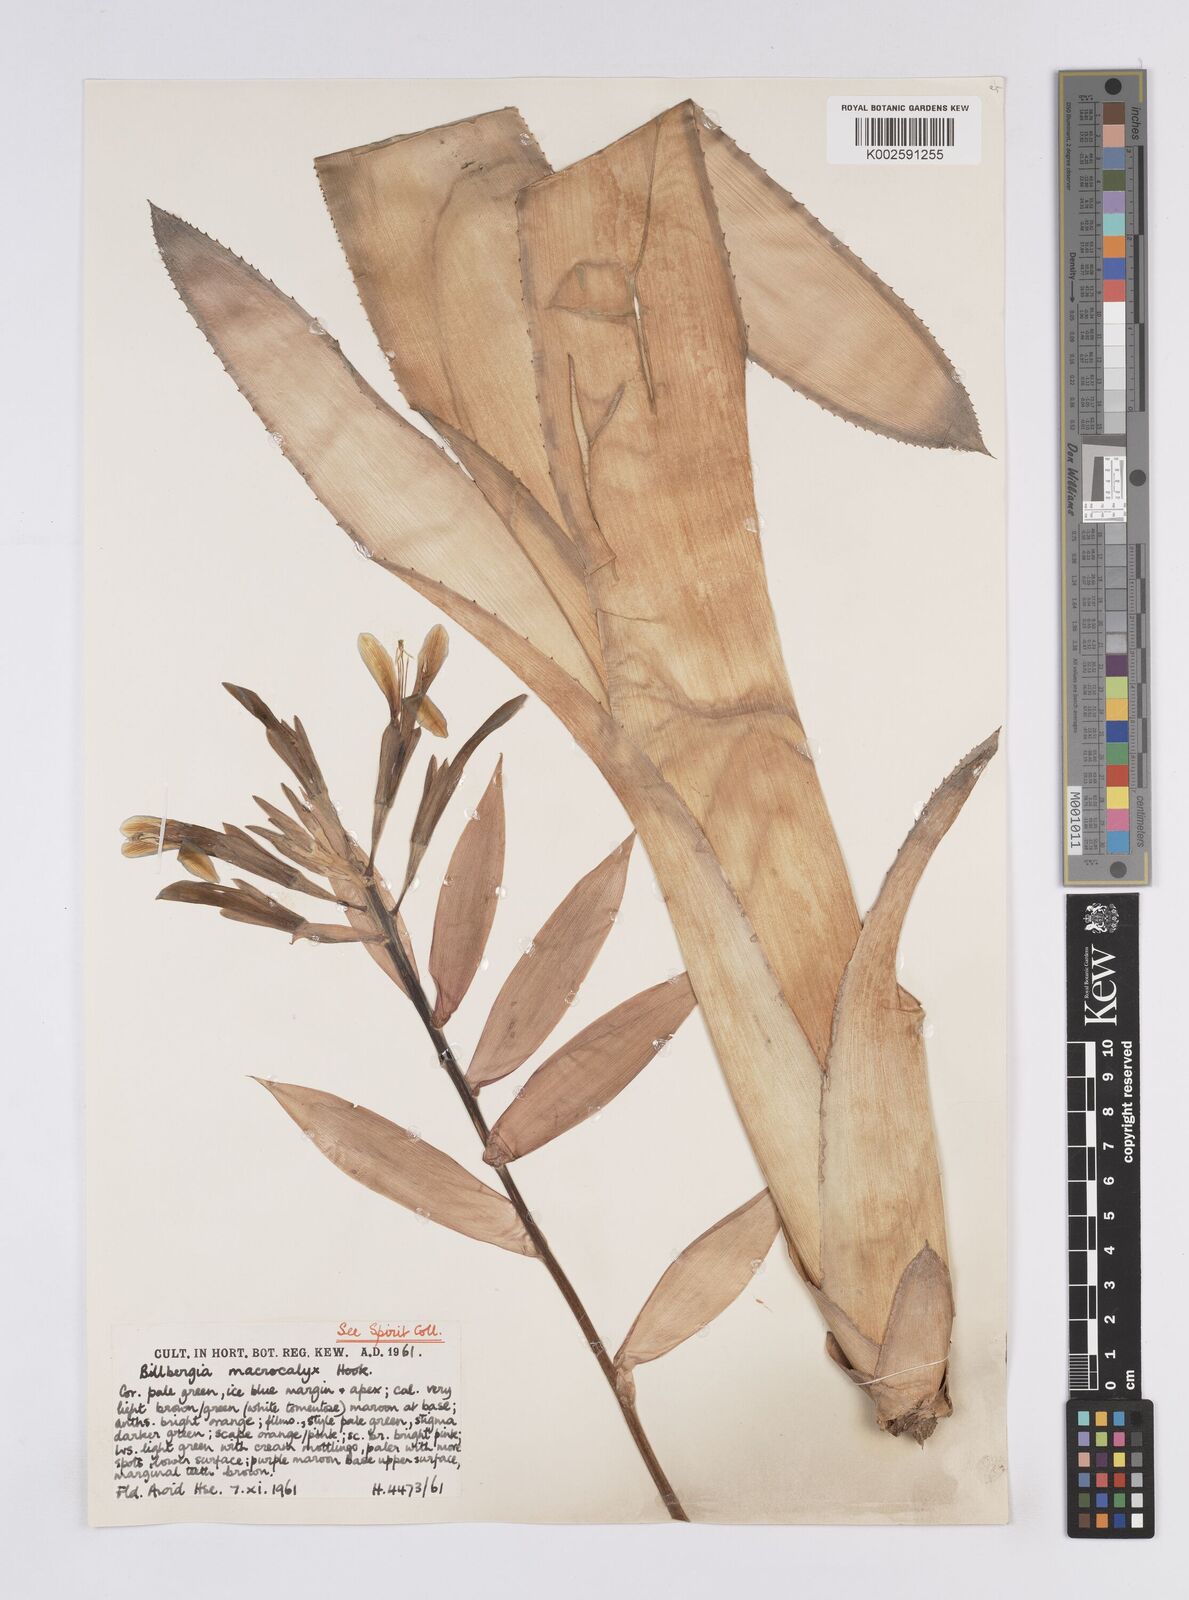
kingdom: Plantae
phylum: Tracheophyta
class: Liliopsida
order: Poales
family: Bromeliaceae
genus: Billbergia
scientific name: Billbergia macrocalyx
